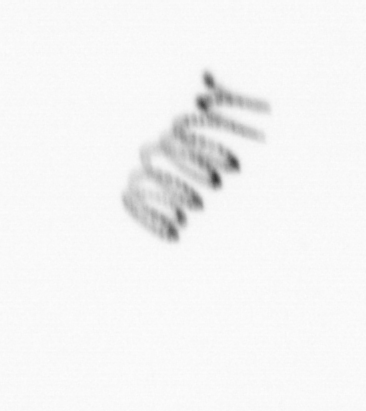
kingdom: Chromista
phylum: Ochrophyta
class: Bacillariophyceae
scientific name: Bacillariophyceae
